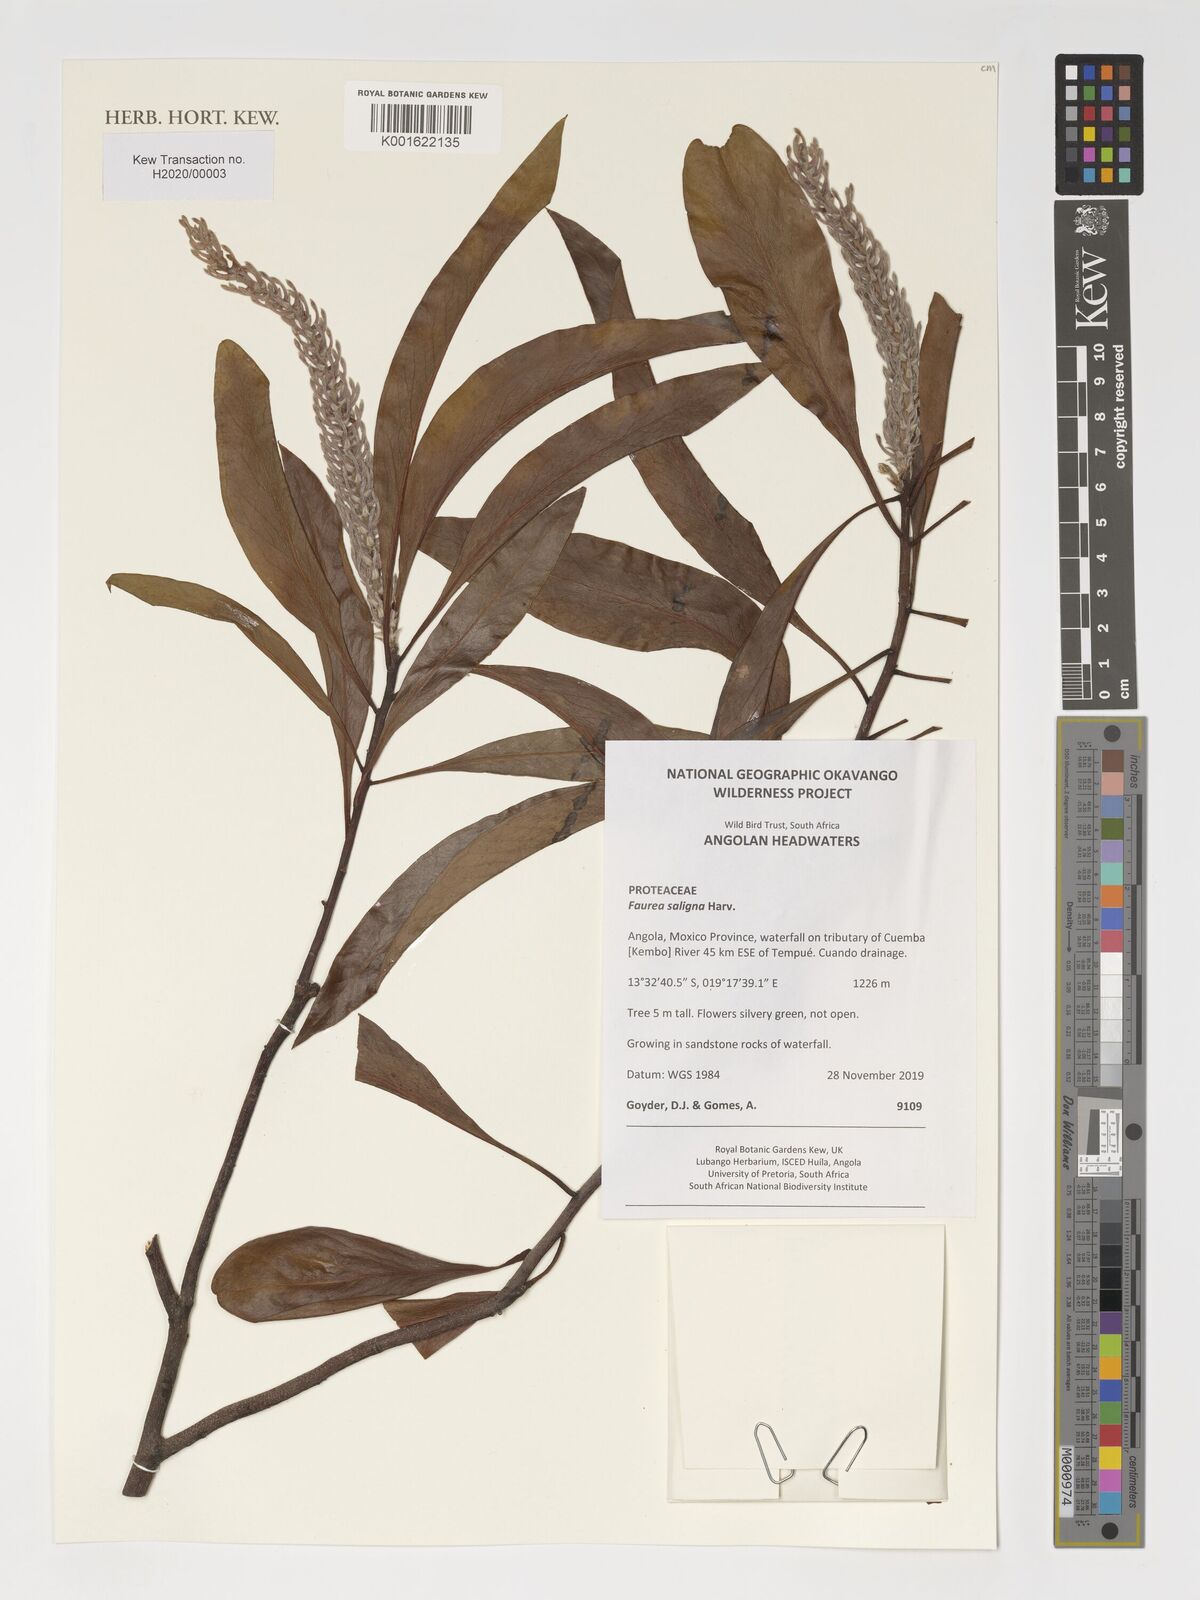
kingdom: Plantae
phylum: Tracheophyta
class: Magnoliopsida
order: Proteales
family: Proteaceae
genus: Faurea
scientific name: Faurea saligna
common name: African bean
